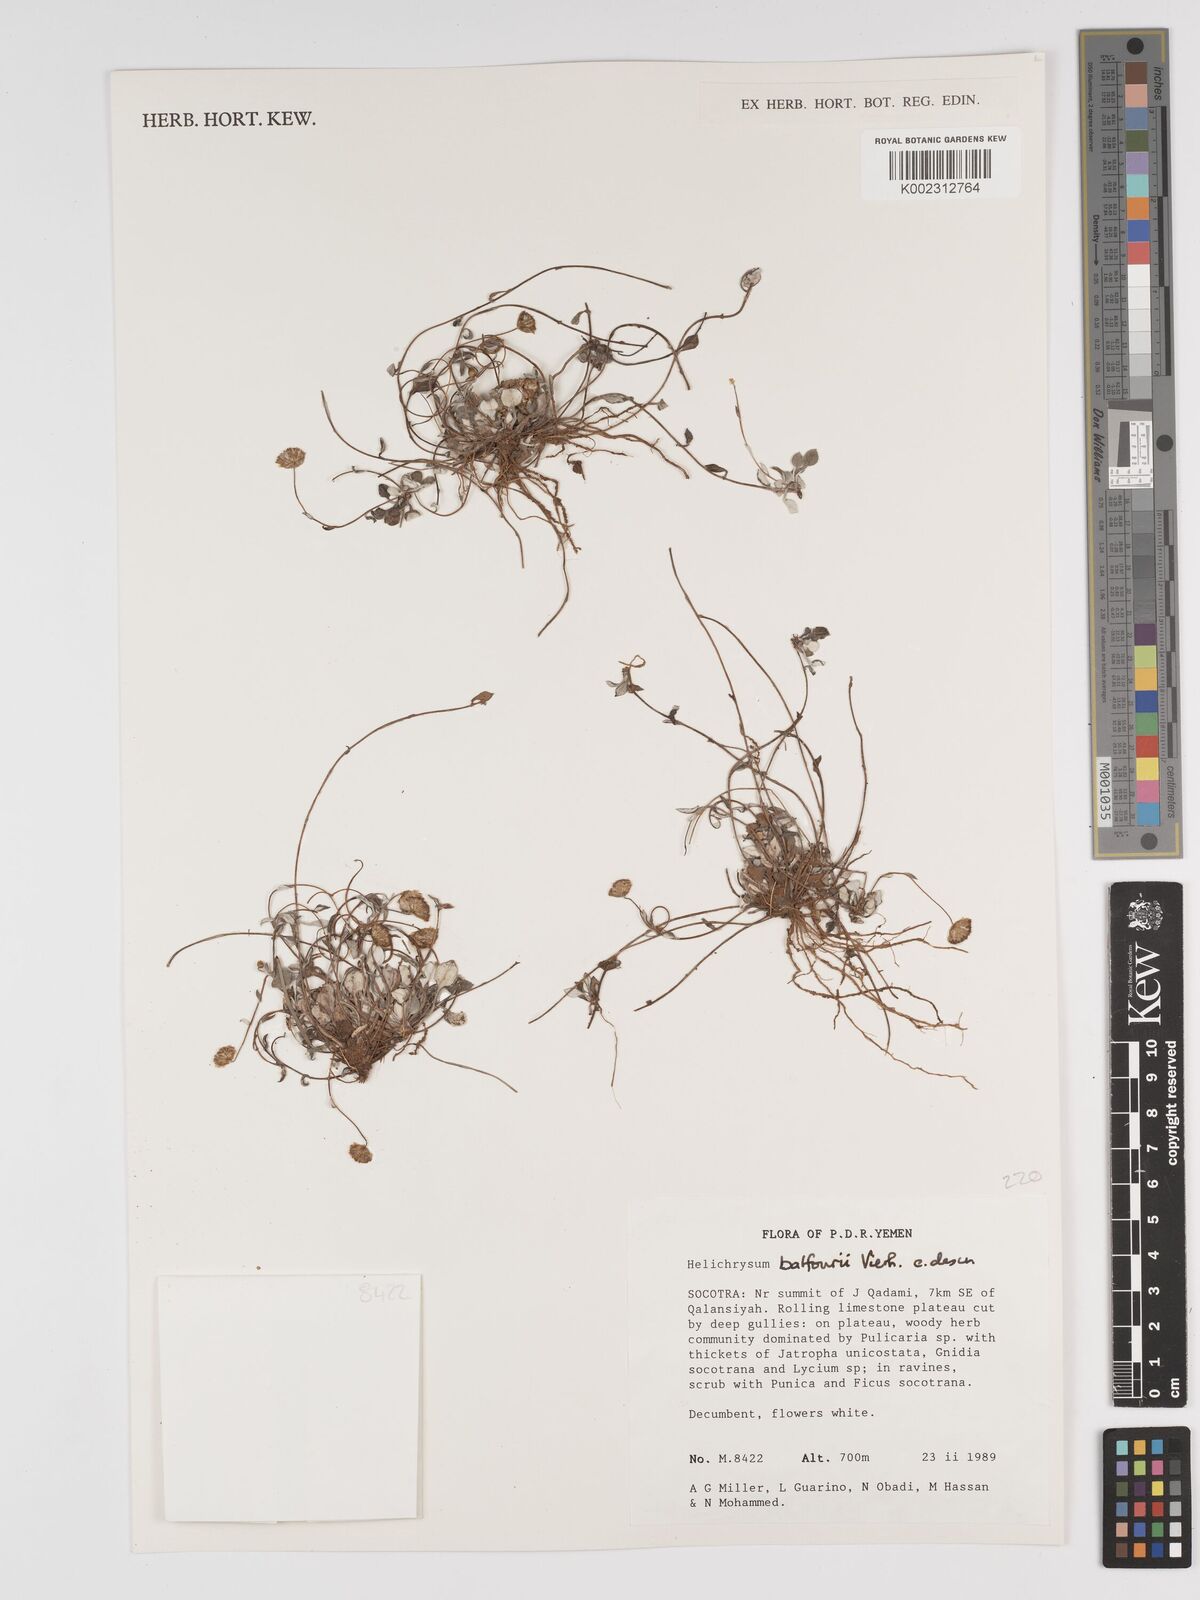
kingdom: Plantae
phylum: Tracheophyta
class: Magnoliopsida
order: Asterales
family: Asteraceae
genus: Libinhania
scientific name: Libinhania balfourii
